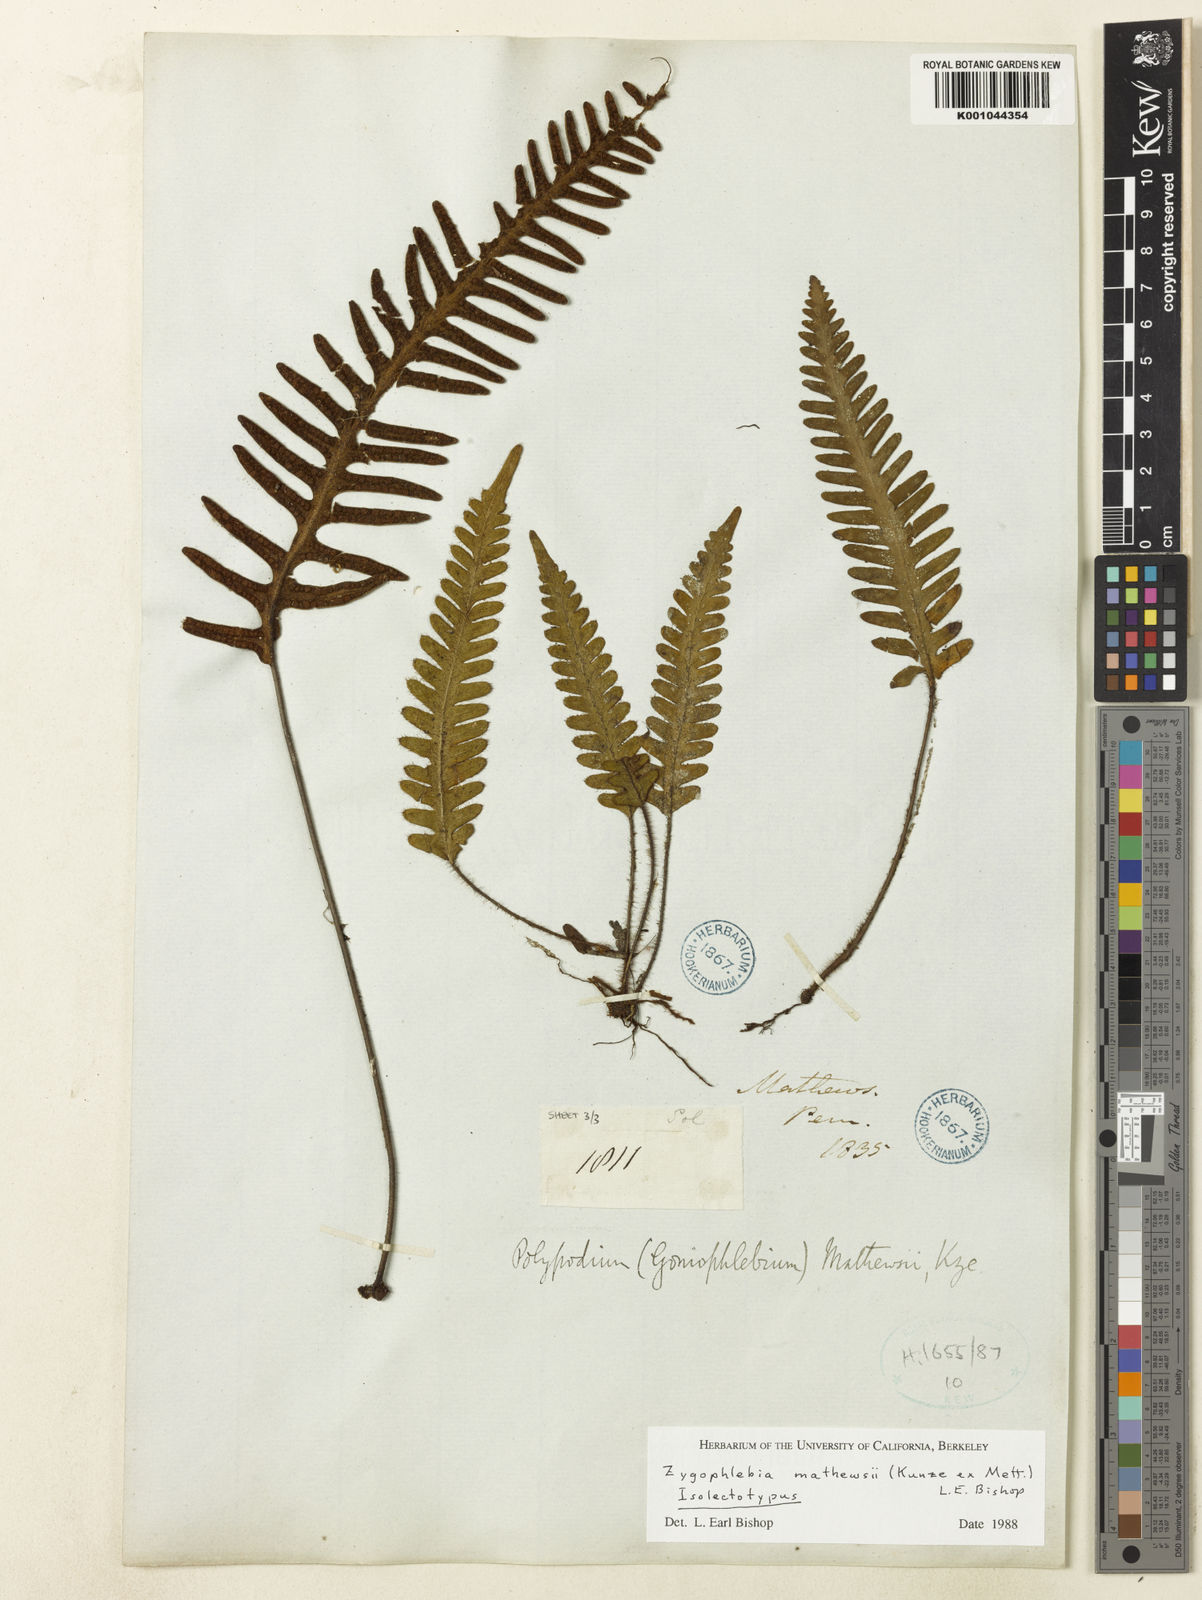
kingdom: Plantae
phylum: Tracheophyta
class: Polypodiopsida
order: Polypodiales
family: Polypodiaceae
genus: Enterosora
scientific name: Enterosora mathewsii
